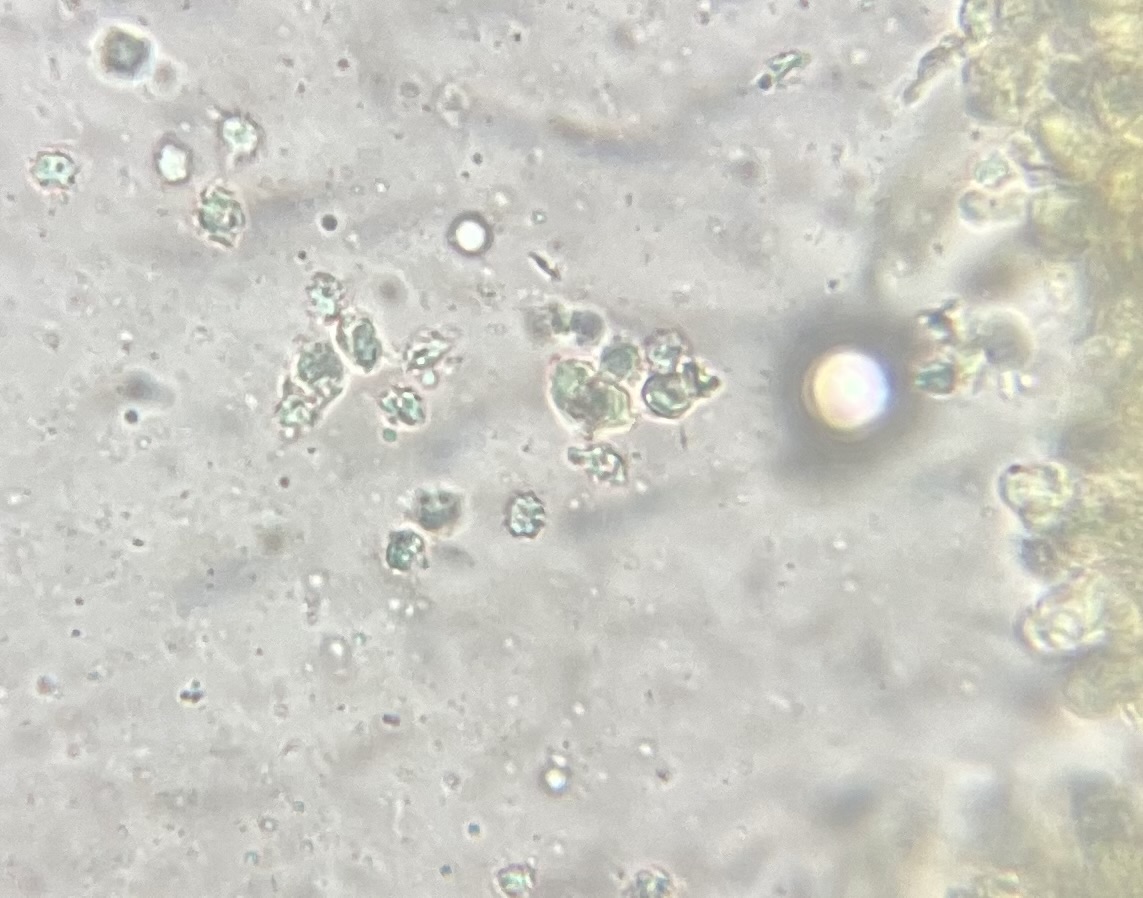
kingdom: Fungi
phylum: Basidiomycota
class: Agaricomycetes
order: Thelephorales
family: Thelephoraceae
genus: Phellodon
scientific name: Phellodon confluens
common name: pjaltet duftpigsvamp
